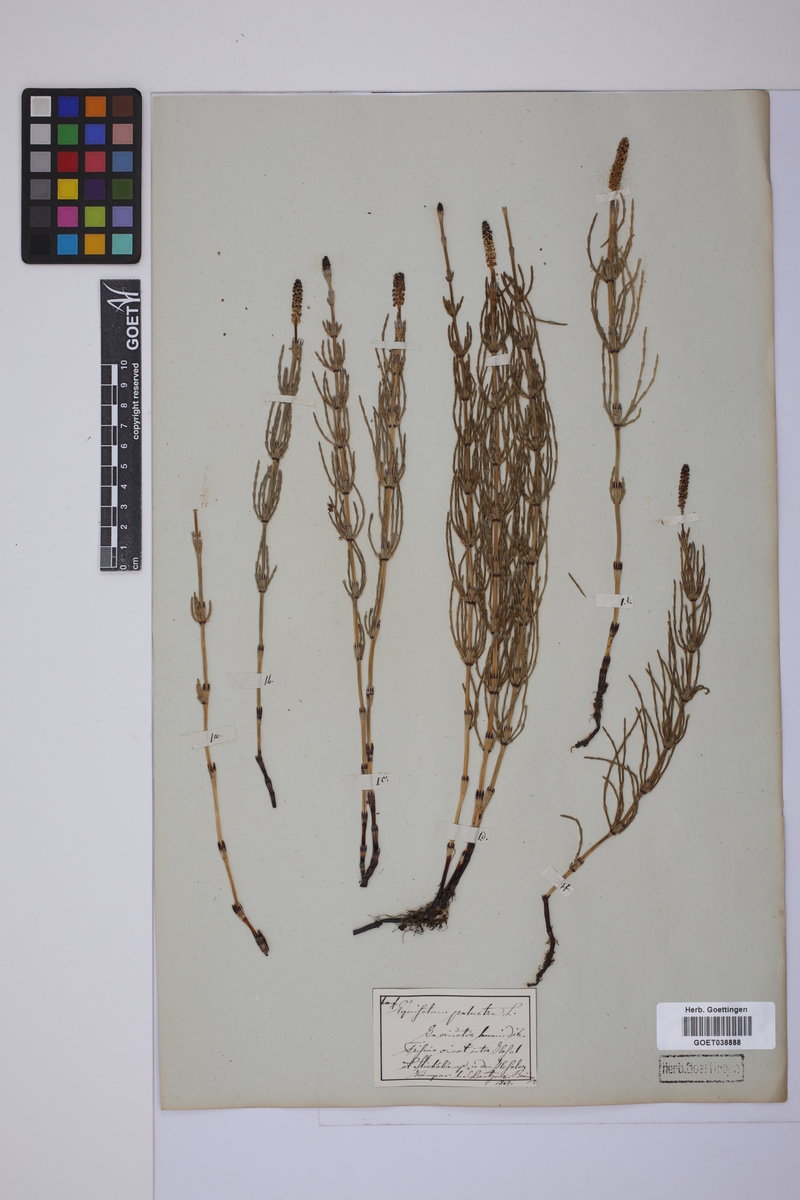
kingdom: Plantae
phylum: Tracheophyta
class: Polypodiopsida
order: Equisetales
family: Equisetaceae
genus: Equisetum
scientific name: Equisetum palustre
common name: Marsh horsetail
